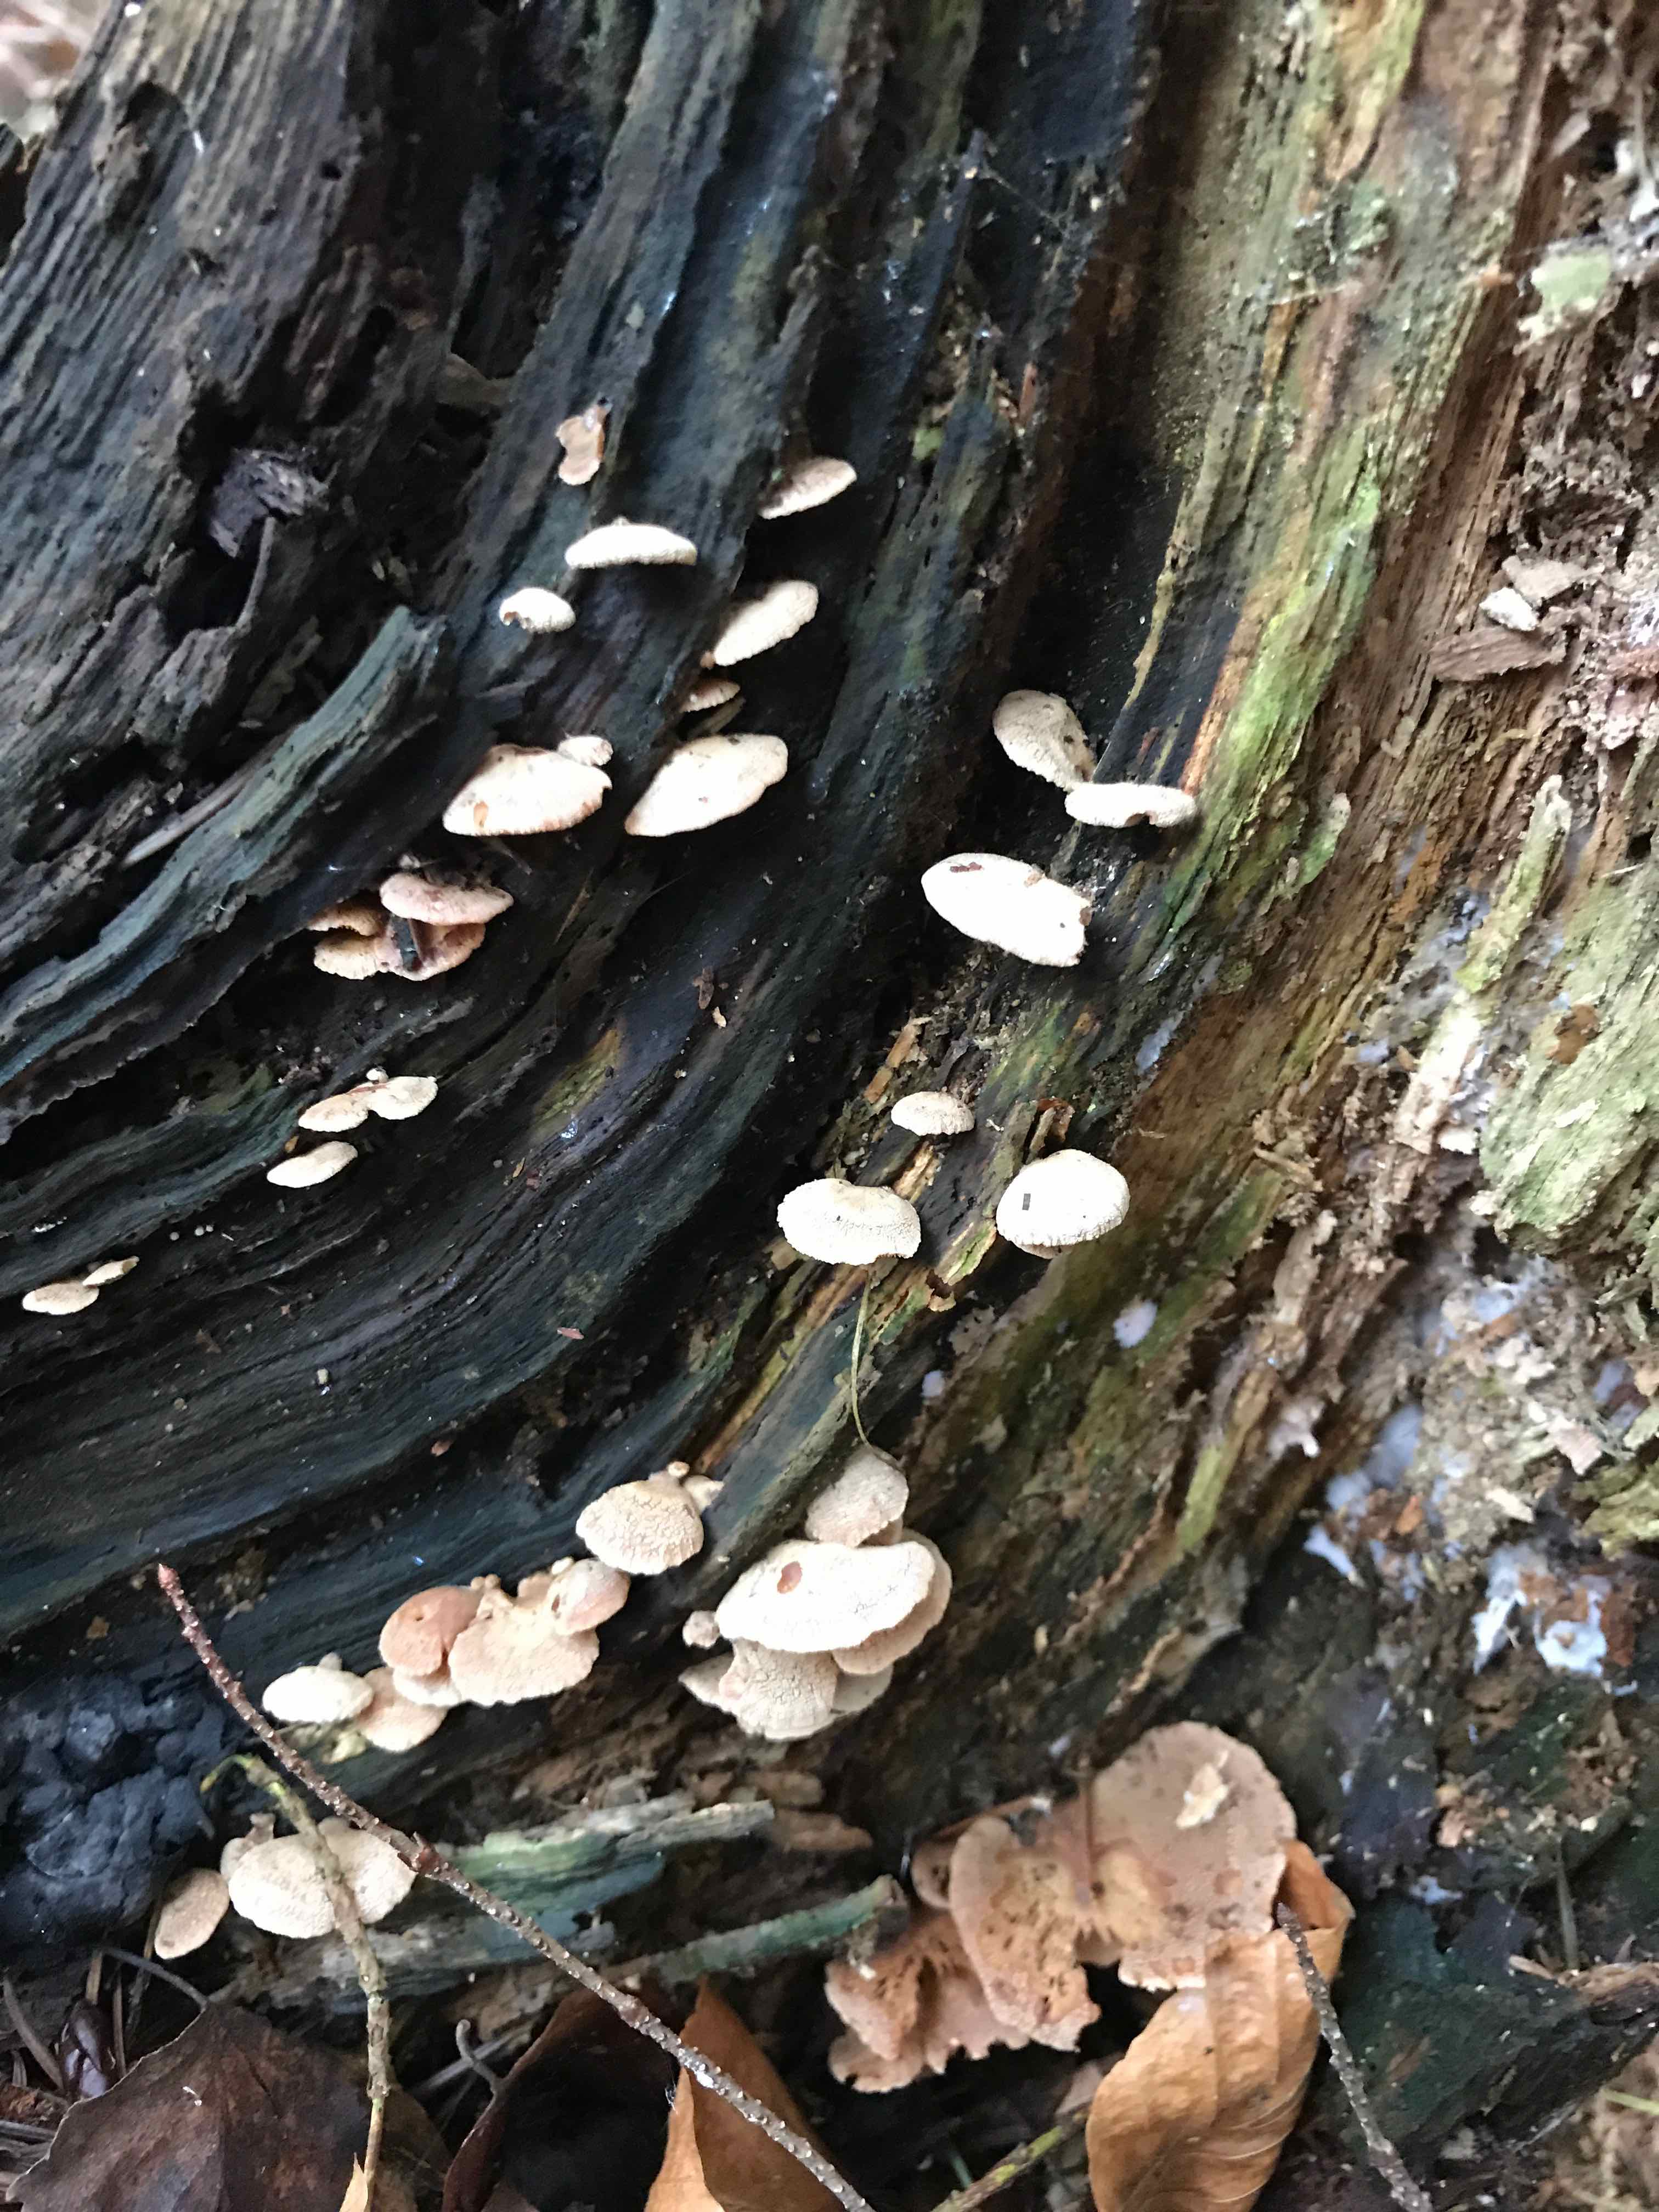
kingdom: Fungi
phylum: Basidiomycota
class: Agaricomycetes
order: Agaricales
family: Mycenaceae
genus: Panellus
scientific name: Panellus stipticus
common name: kliddet epaulethat
